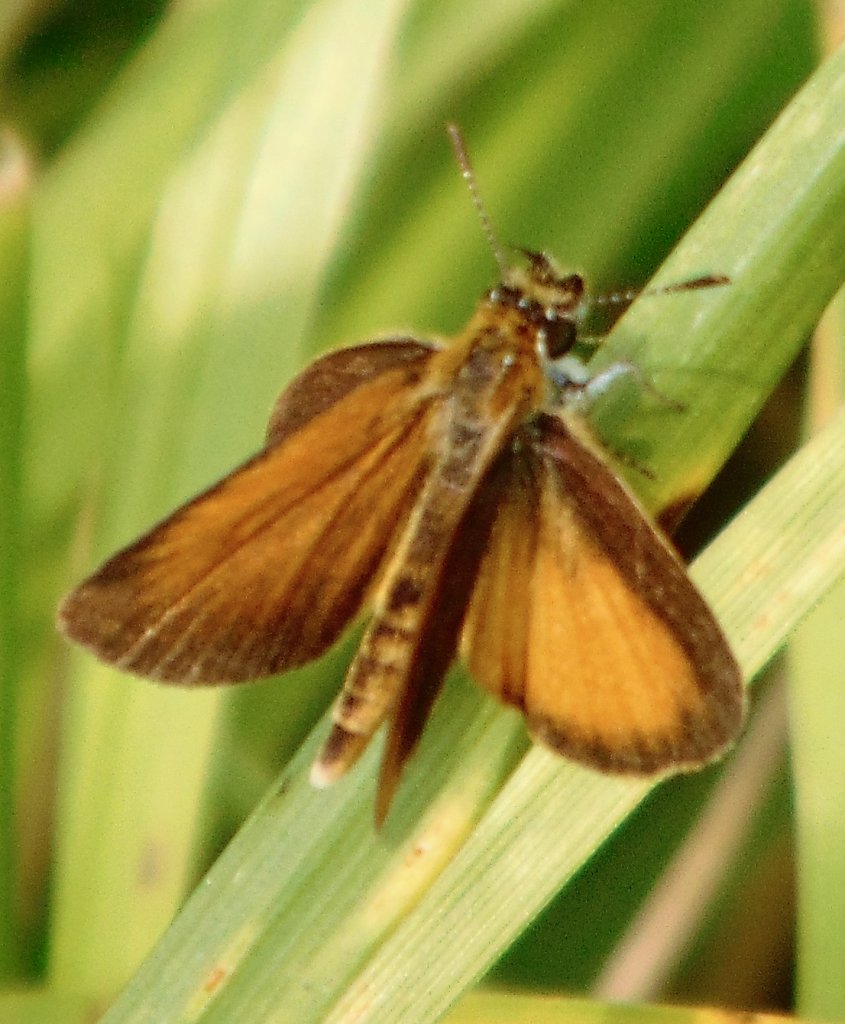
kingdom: Animalia
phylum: Arthropoda
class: Insecta
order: Lepidoptera
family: Hesperiidae
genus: Ancyloxypha
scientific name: Ancyloxypha numitor
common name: Least Skipper
